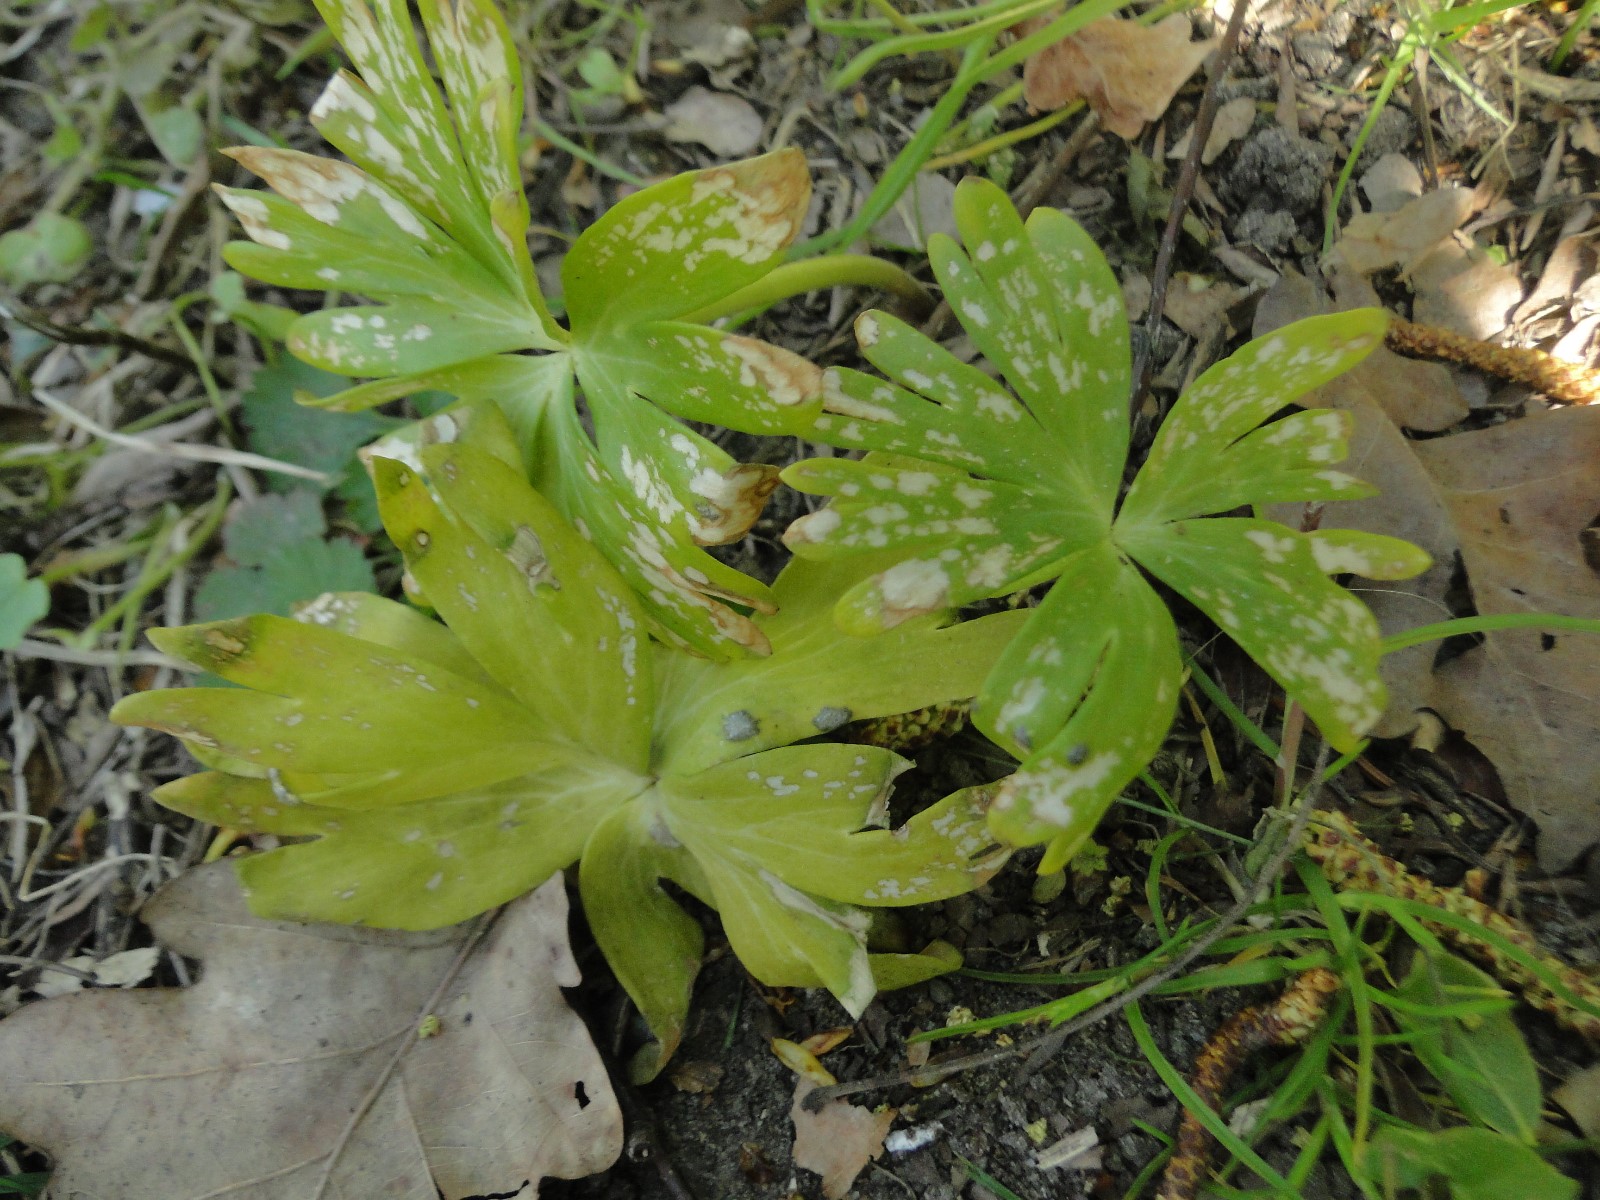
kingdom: Fungi
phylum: Basidiomycota
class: Ustilaginomycetes
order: Urocystidales
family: Urocystidaceae
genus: Urocystis
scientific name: Urocystis eranthidis
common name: erantis-brand
